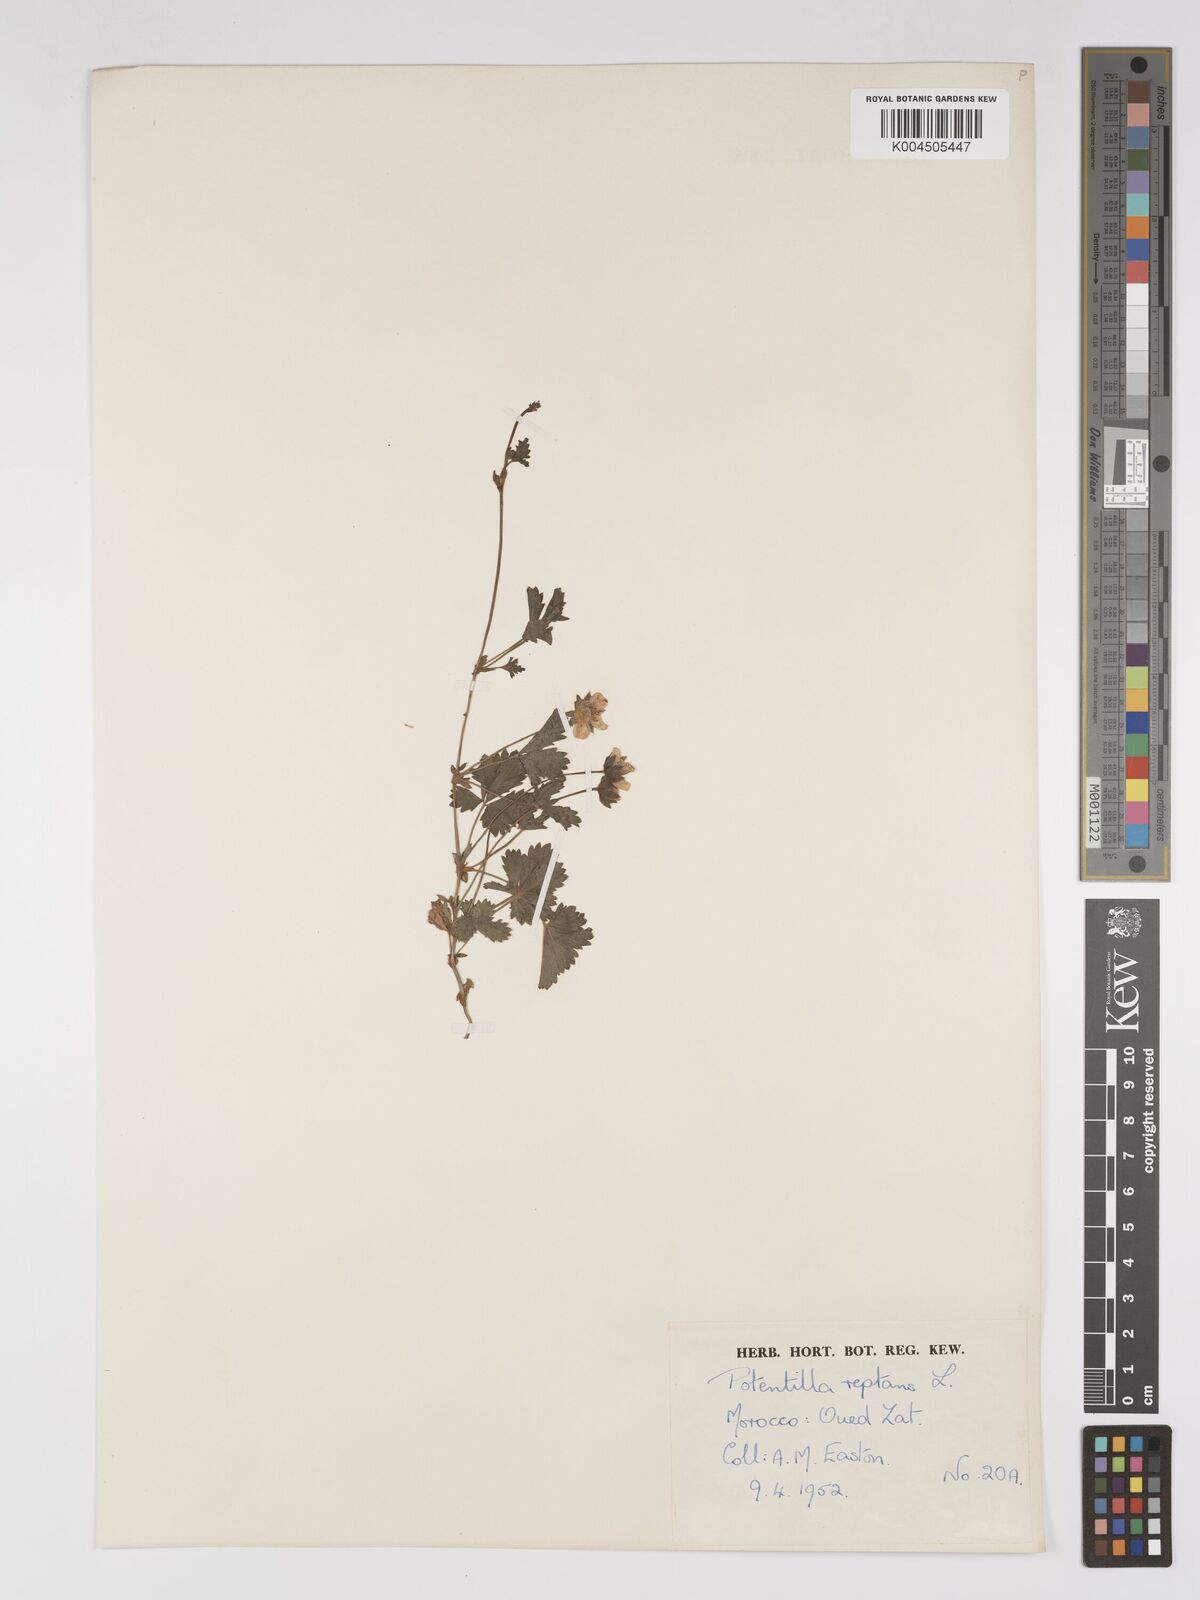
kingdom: Plantae
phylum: Tracheophyta
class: Magnoliopsida
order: Rosales
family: Rosaceae
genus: Potentilla
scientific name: Potentilla reptans
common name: Creeping cinquefoil
